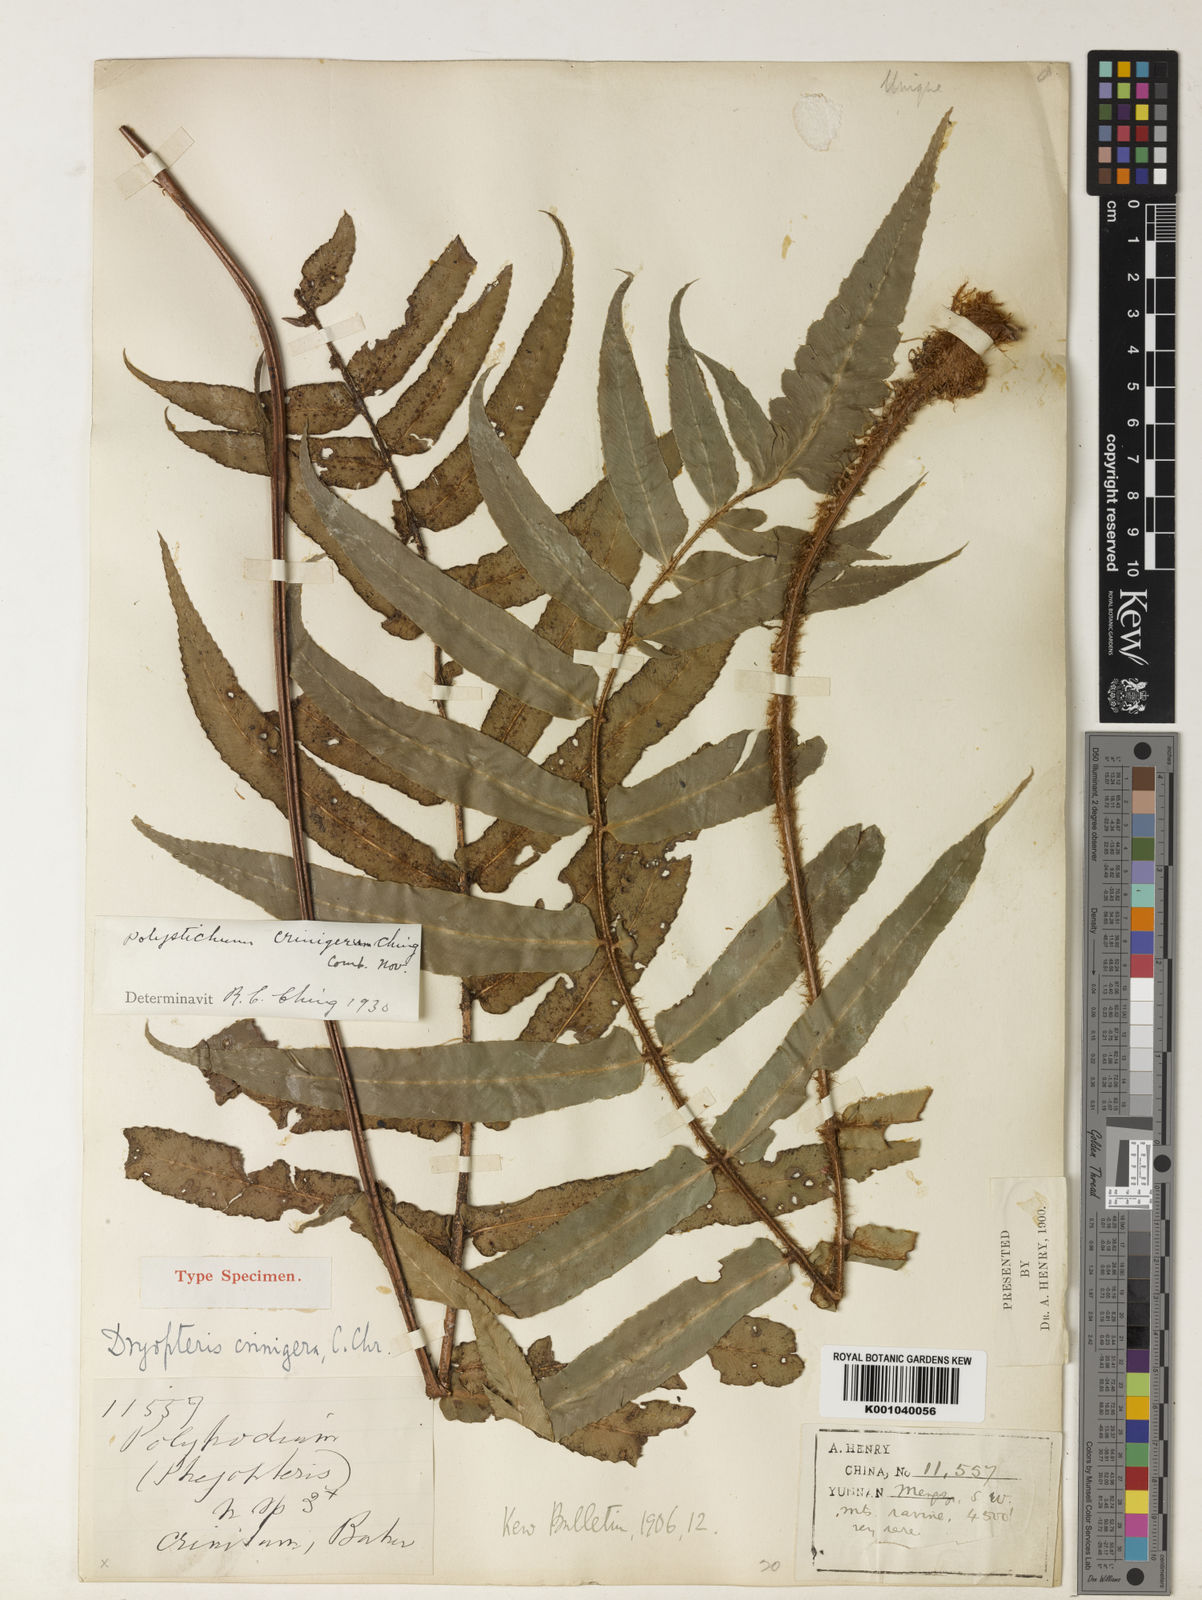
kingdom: Plantae
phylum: Tracheophyta
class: Polypodiopsida
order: Polypodiales
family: Dryopteridaceae
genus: Polystichum
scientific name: Polystichum crinigerum
